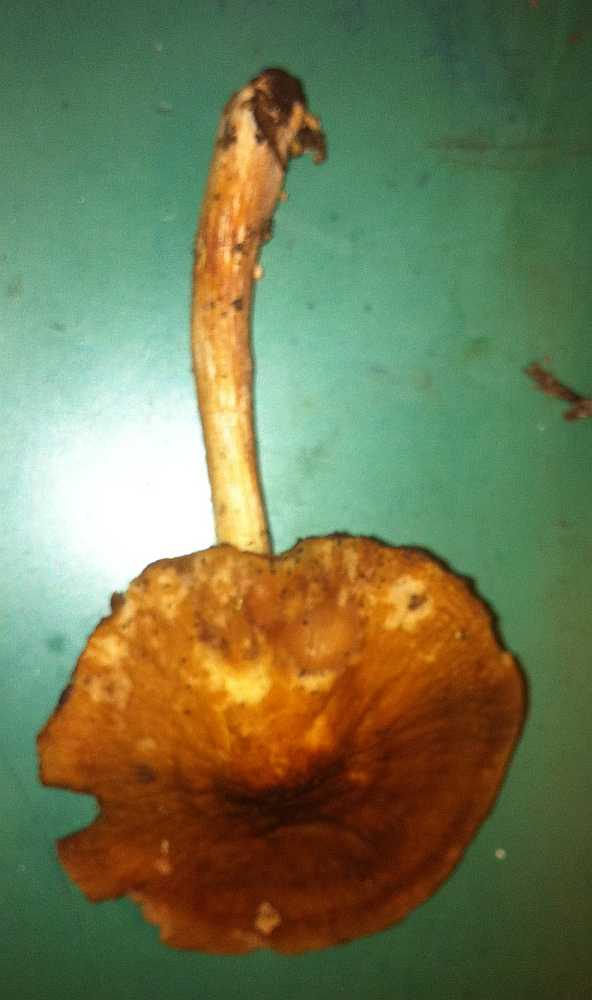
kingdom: Fungi
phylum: Basidiomycota
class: Agaricomycetes
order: Agaricales
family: Pluteaceae
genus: Pluteus
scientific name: Pluteus phlebophorus
